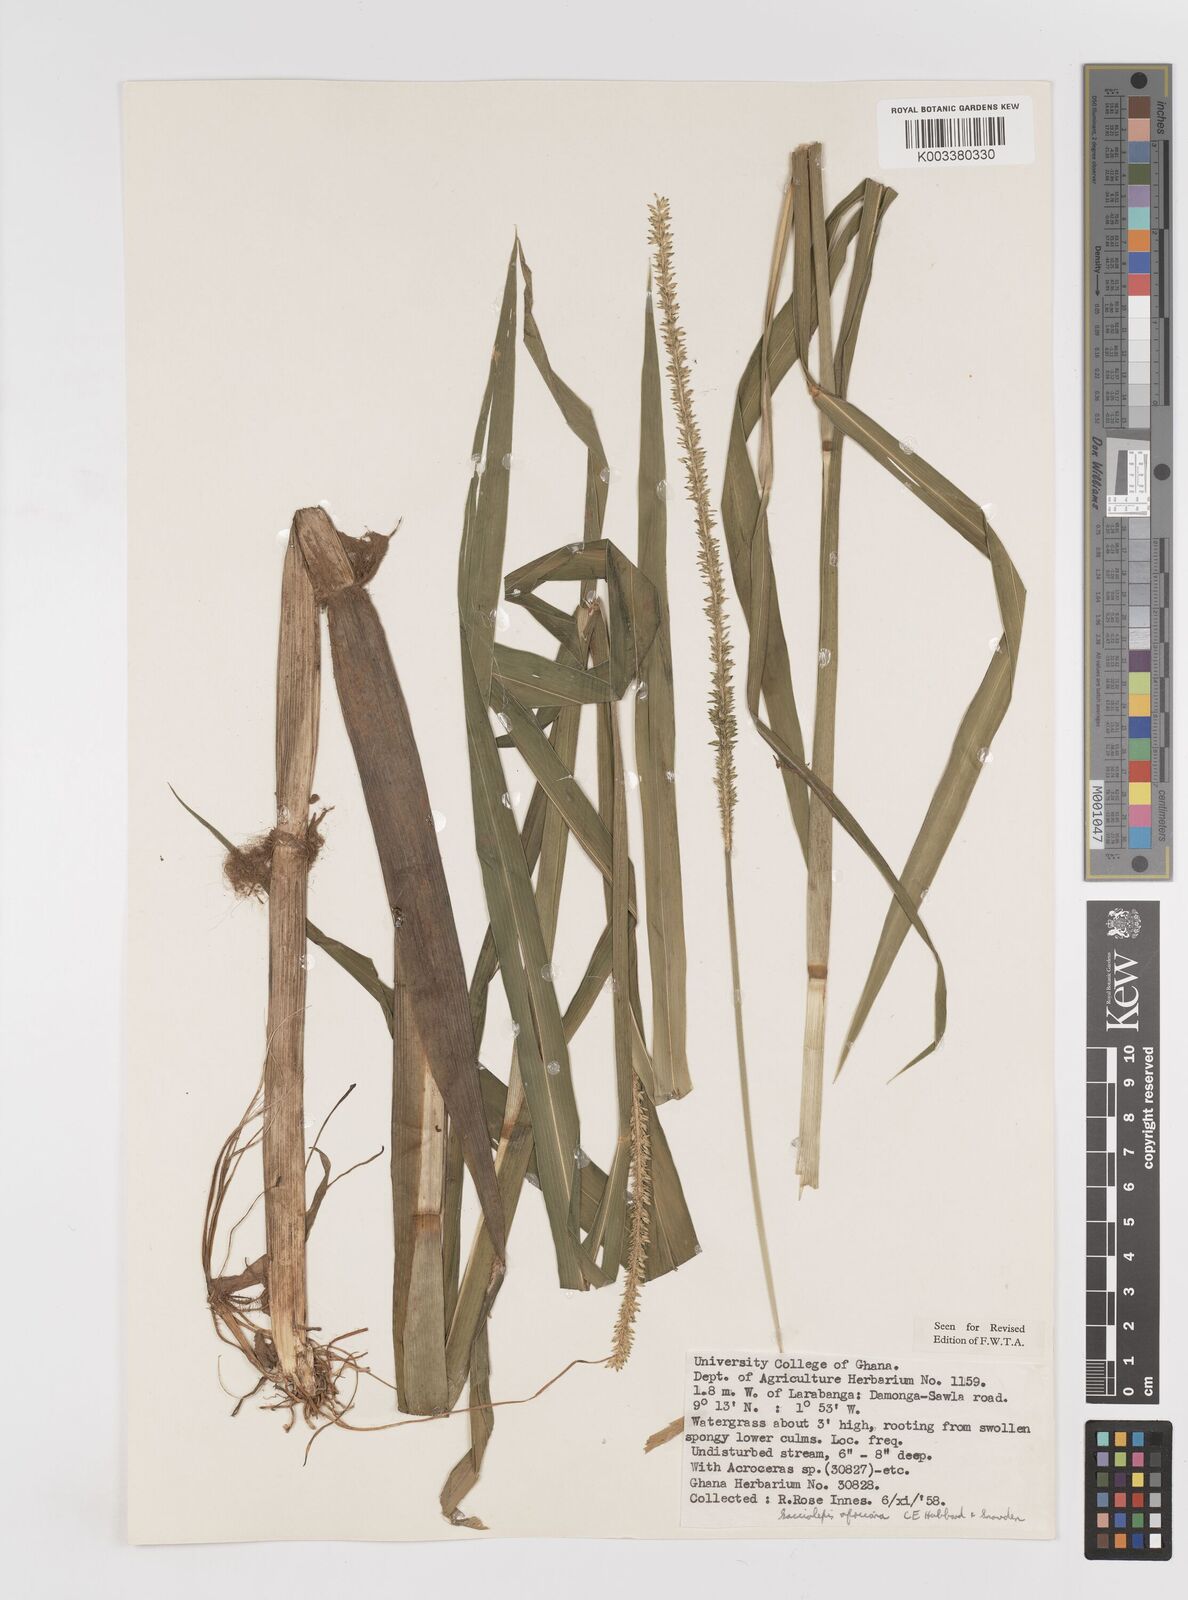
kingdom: Plantae
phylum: Tracheophyta
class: Liliopsida
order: Poales
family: Poaceae
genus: Sacciolepis
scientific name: Sacciolepis africana
